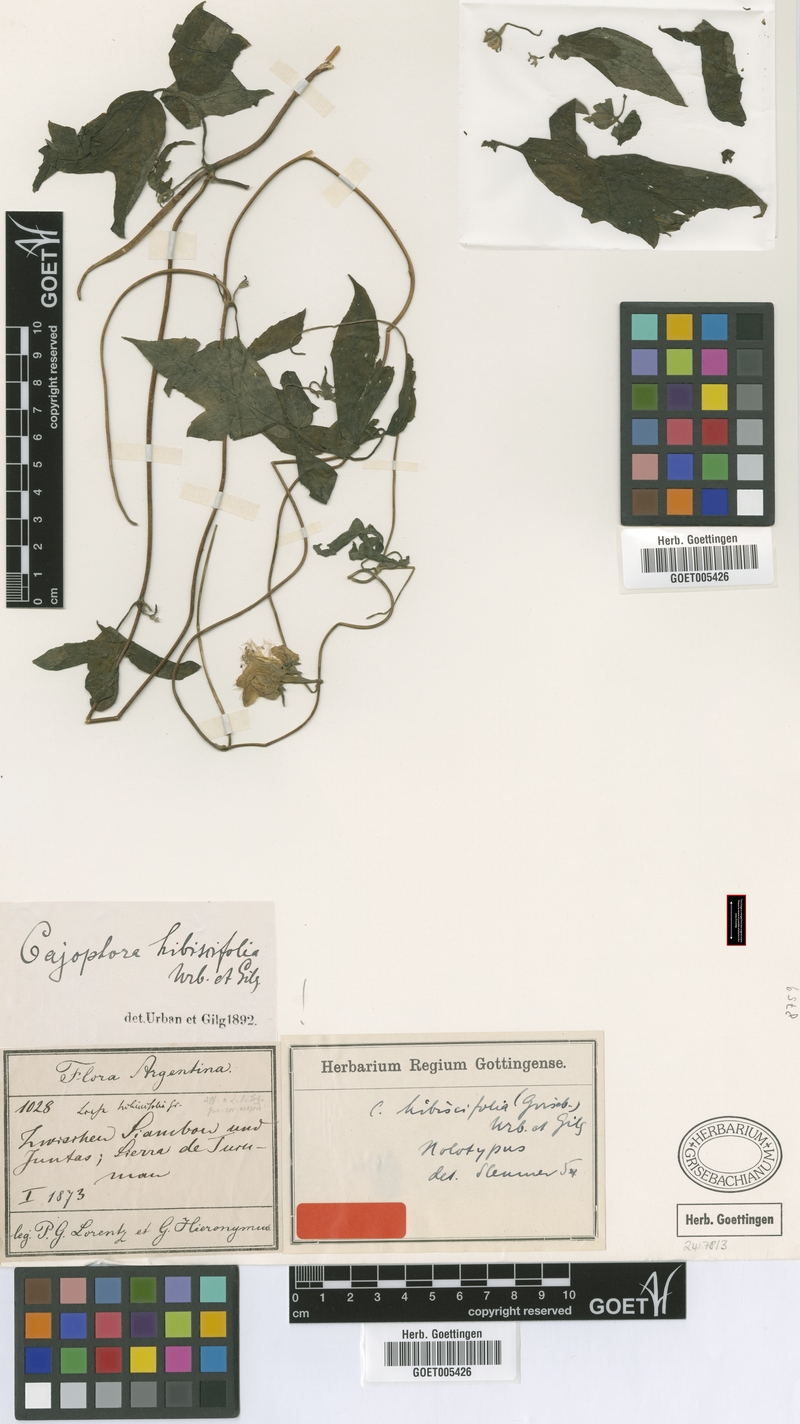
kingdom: Plantae
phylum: Tracheophyta
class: Magnoliopsida
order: Cornales
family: Loasaceae
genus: Caiophora
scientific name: Caiophora hibiscifolia
